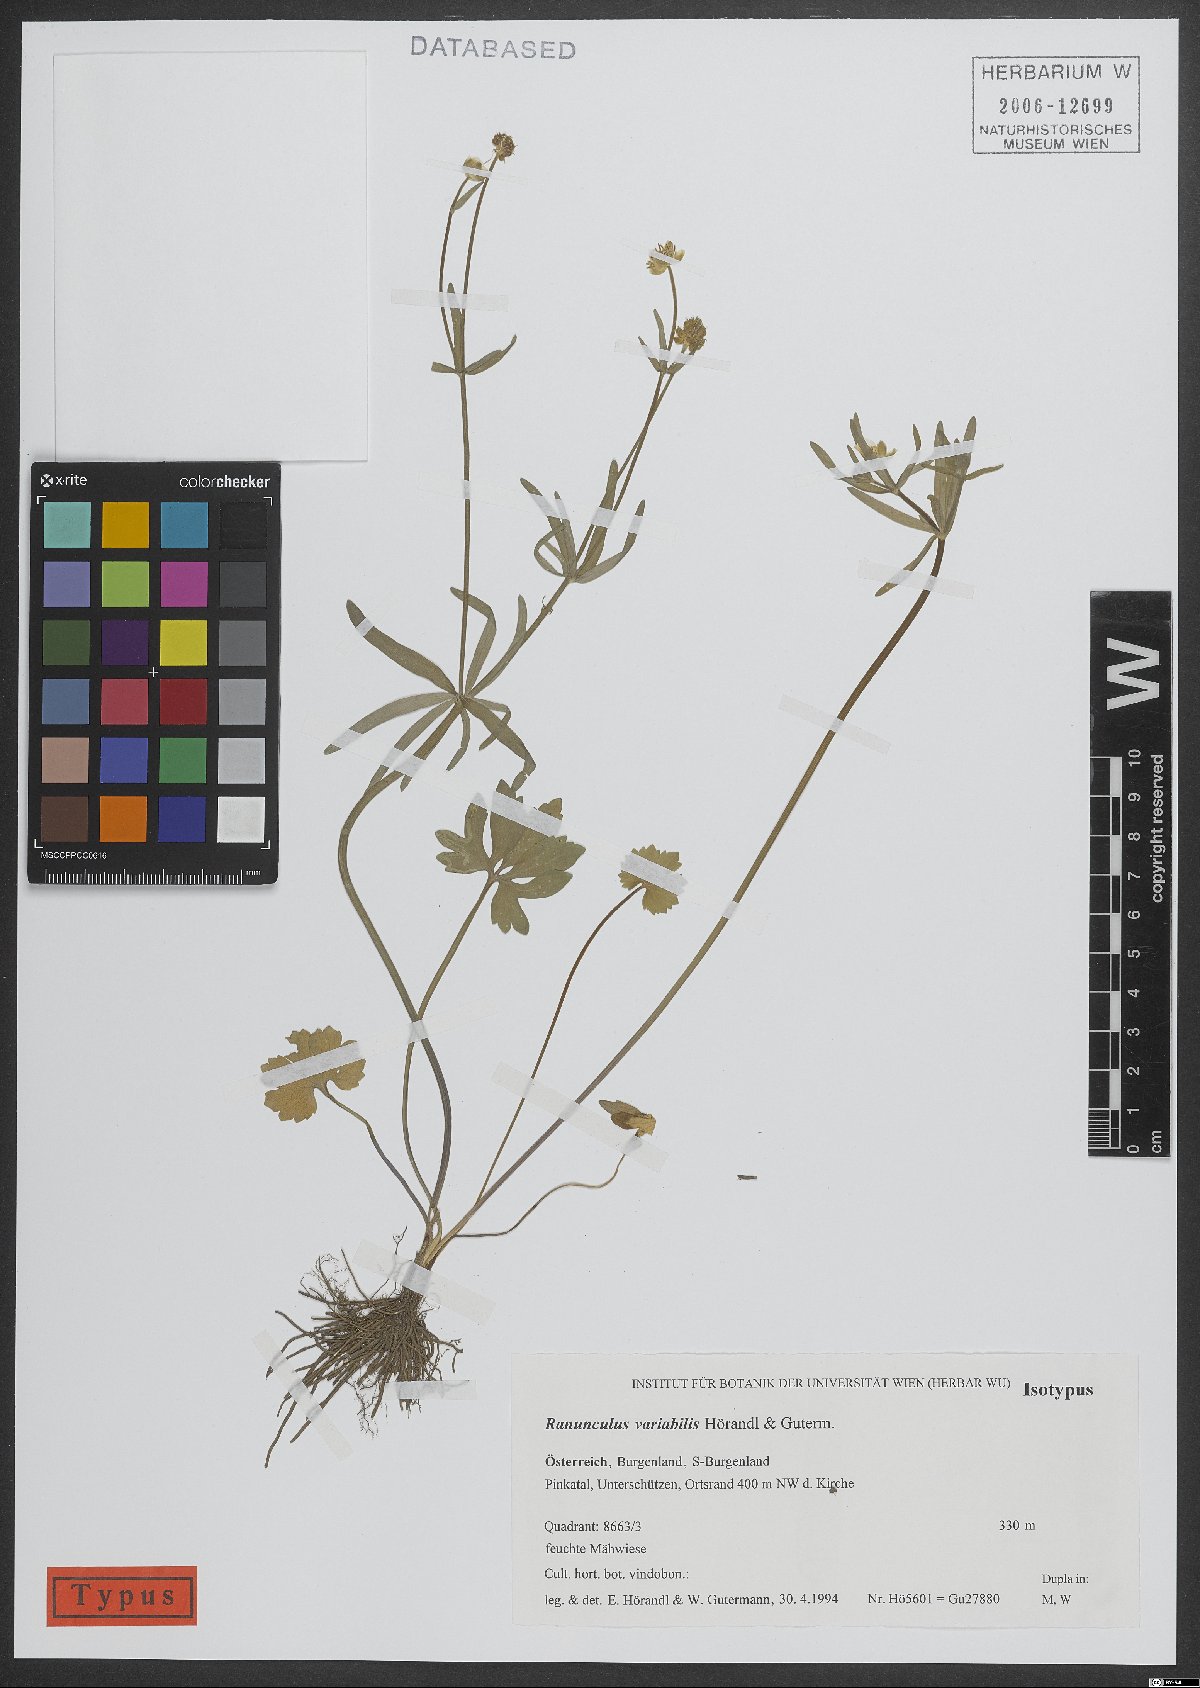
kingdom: Plantae
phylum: Tracheophyta
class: Magnoliopsida
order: Ranunculales
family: Ranunculaceae
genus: Ranunculus
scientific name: Ranunculus variabilis
